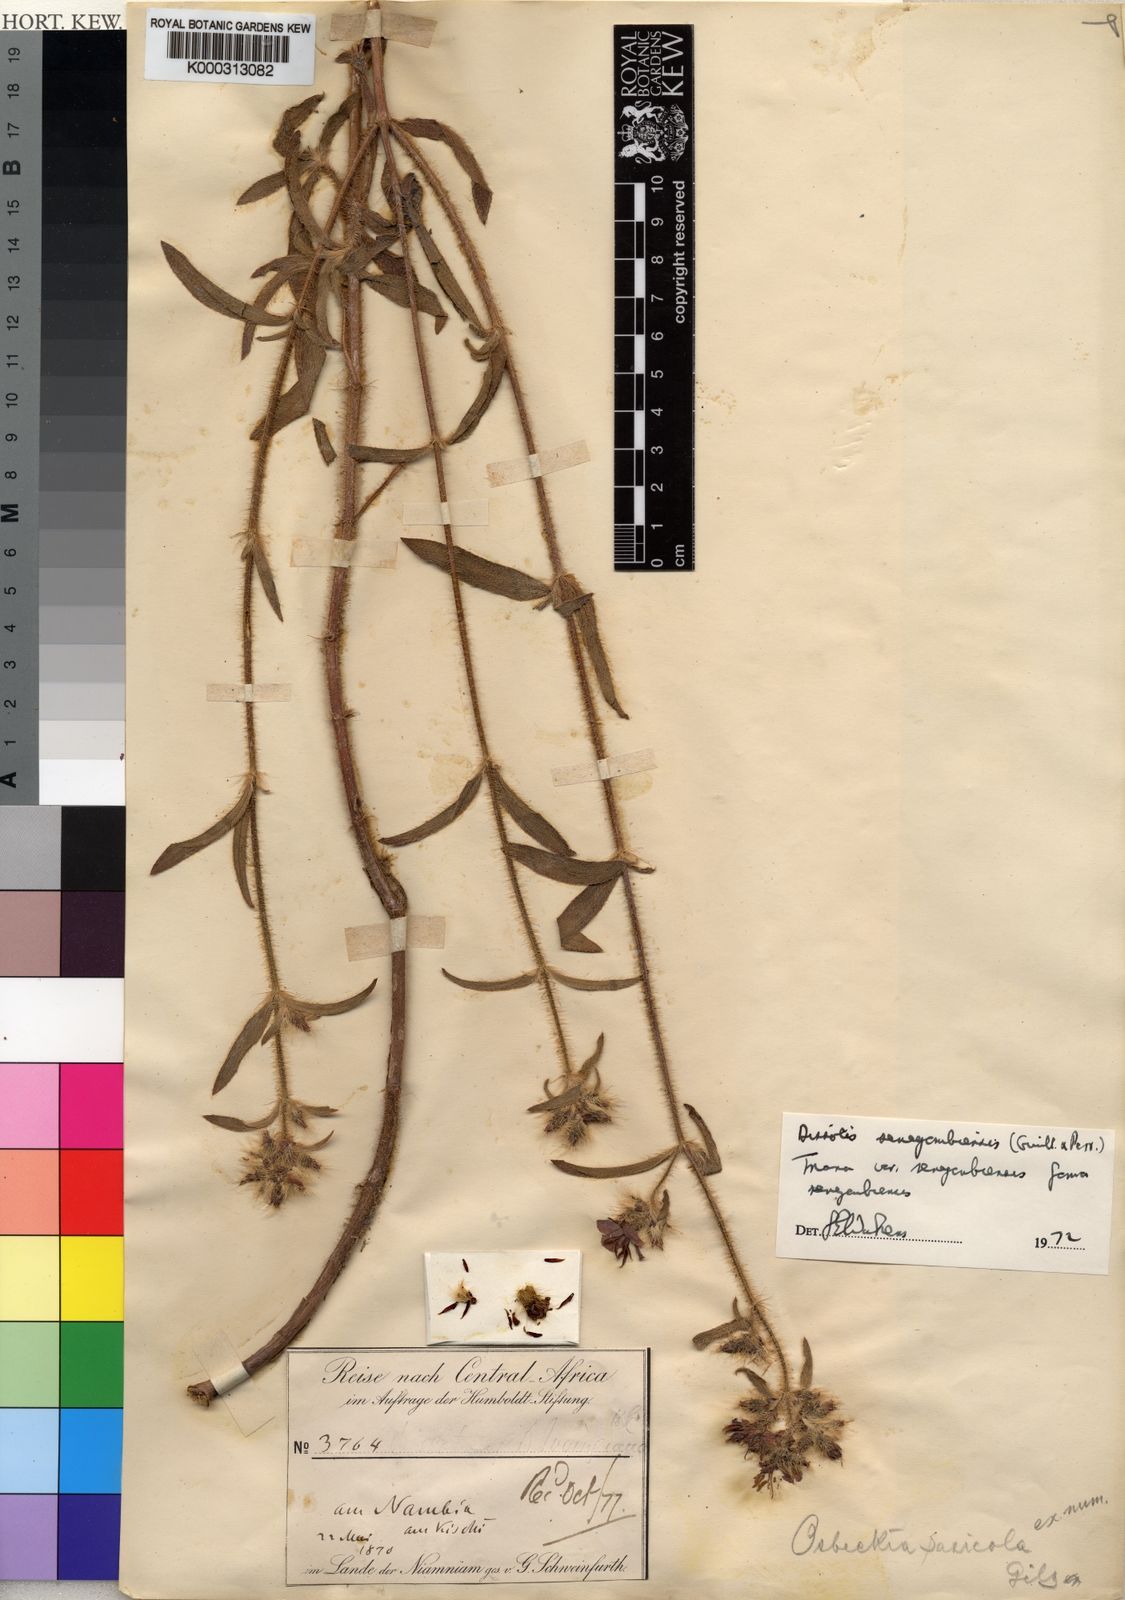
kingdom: Plantae
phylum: Tracheophyta
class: Magnoliopsida
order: Myrtales
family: Melastomataceae
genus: Antherotoma
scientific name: Antherotoma
